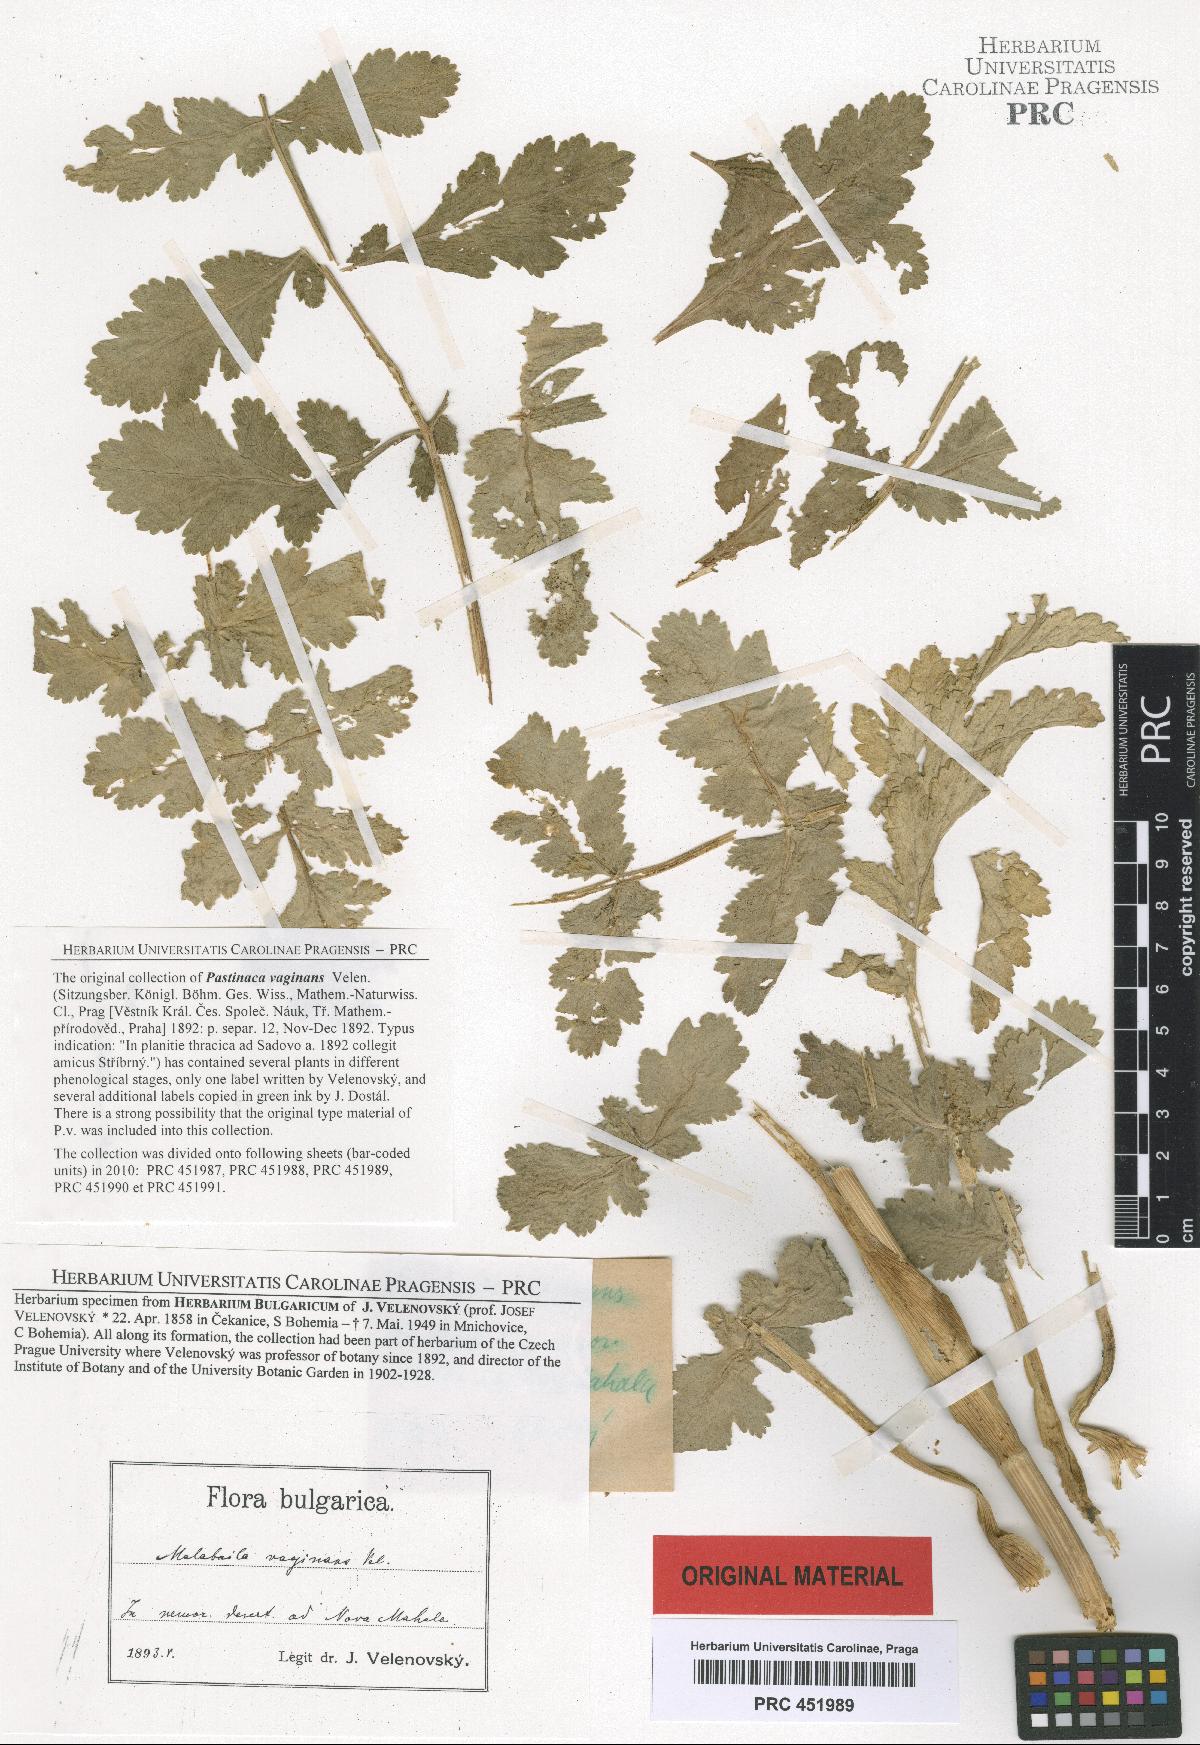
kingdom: Plantae
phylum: Tracheophyta
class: Magnoliopsida
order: Apiales
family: Apiaceae
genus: Pastinaca
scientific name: Pastinaca clausii
